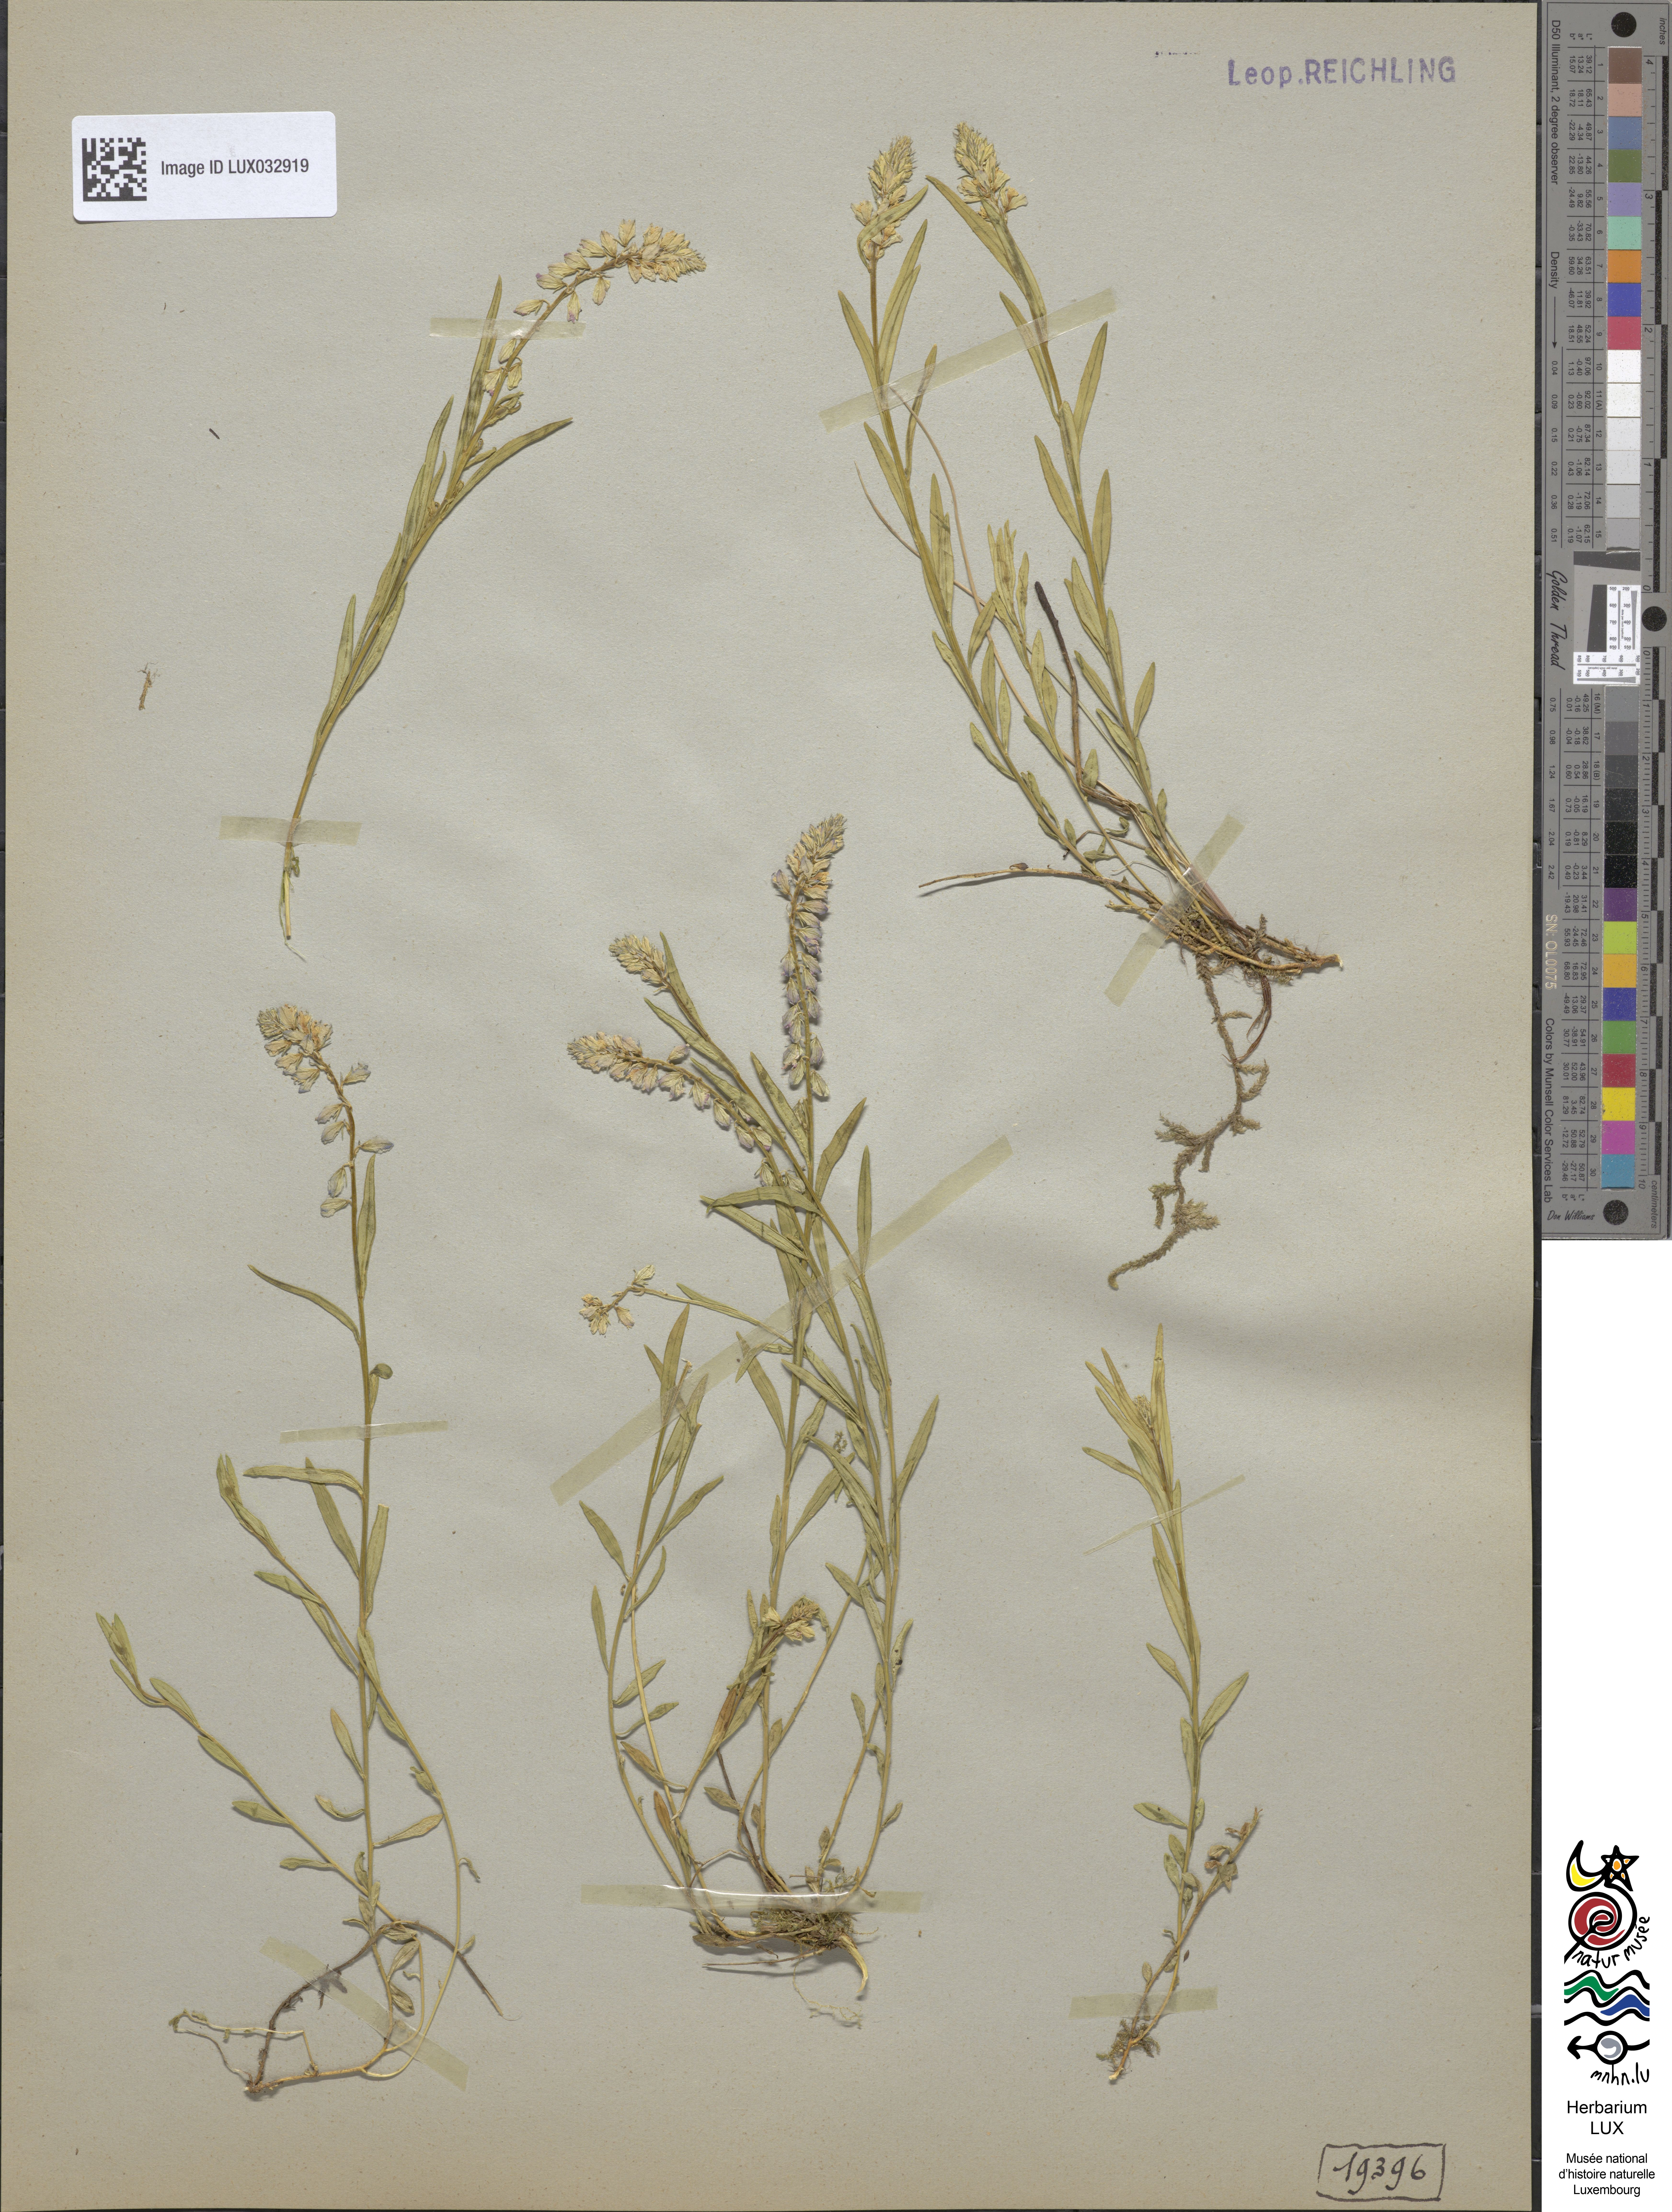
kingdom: Plantae
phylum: Tracheophyta
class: Magnoliopsida
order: Fabales
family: Polygalaceae
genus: Polygala
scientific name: Polygala comosa
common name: Tufted milkwort
